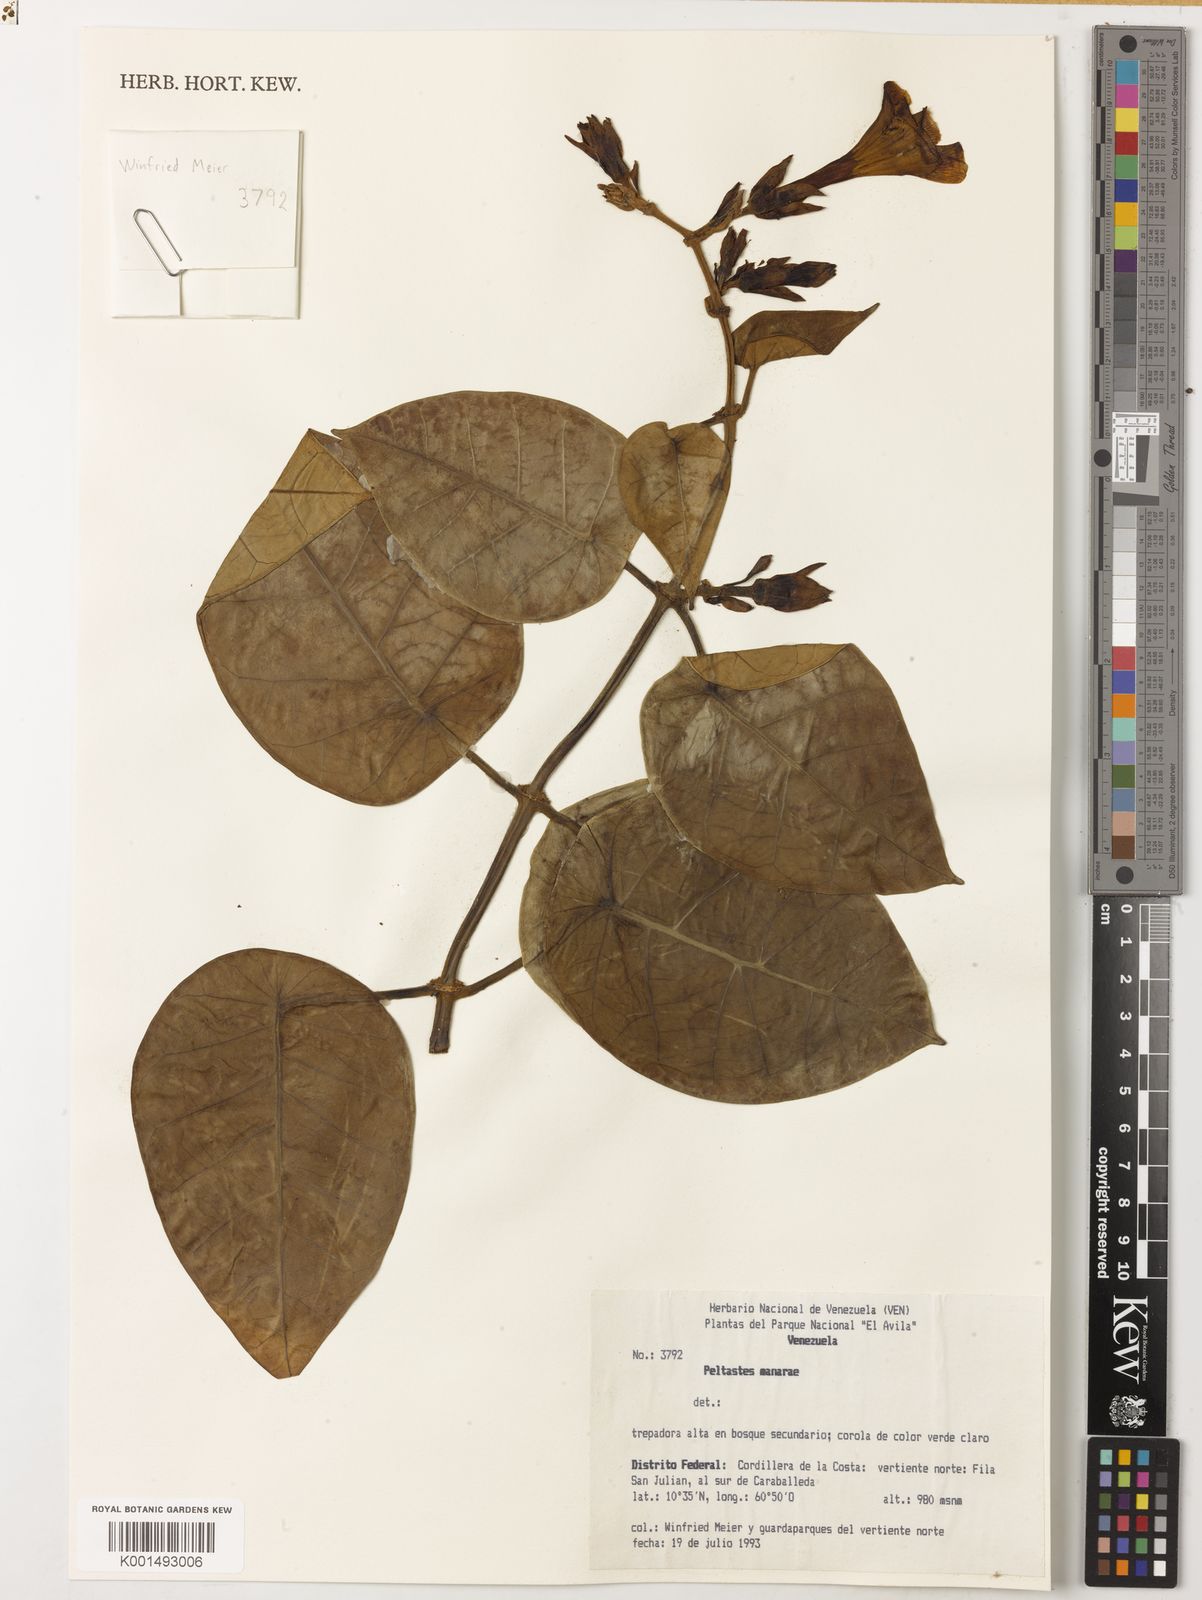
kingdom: Plantae
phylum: Tracheophyta
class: Magnoliopsida
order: Gentianales
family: Apocynaceae
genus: Macropharynx
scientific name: Macropharynx colombiana
